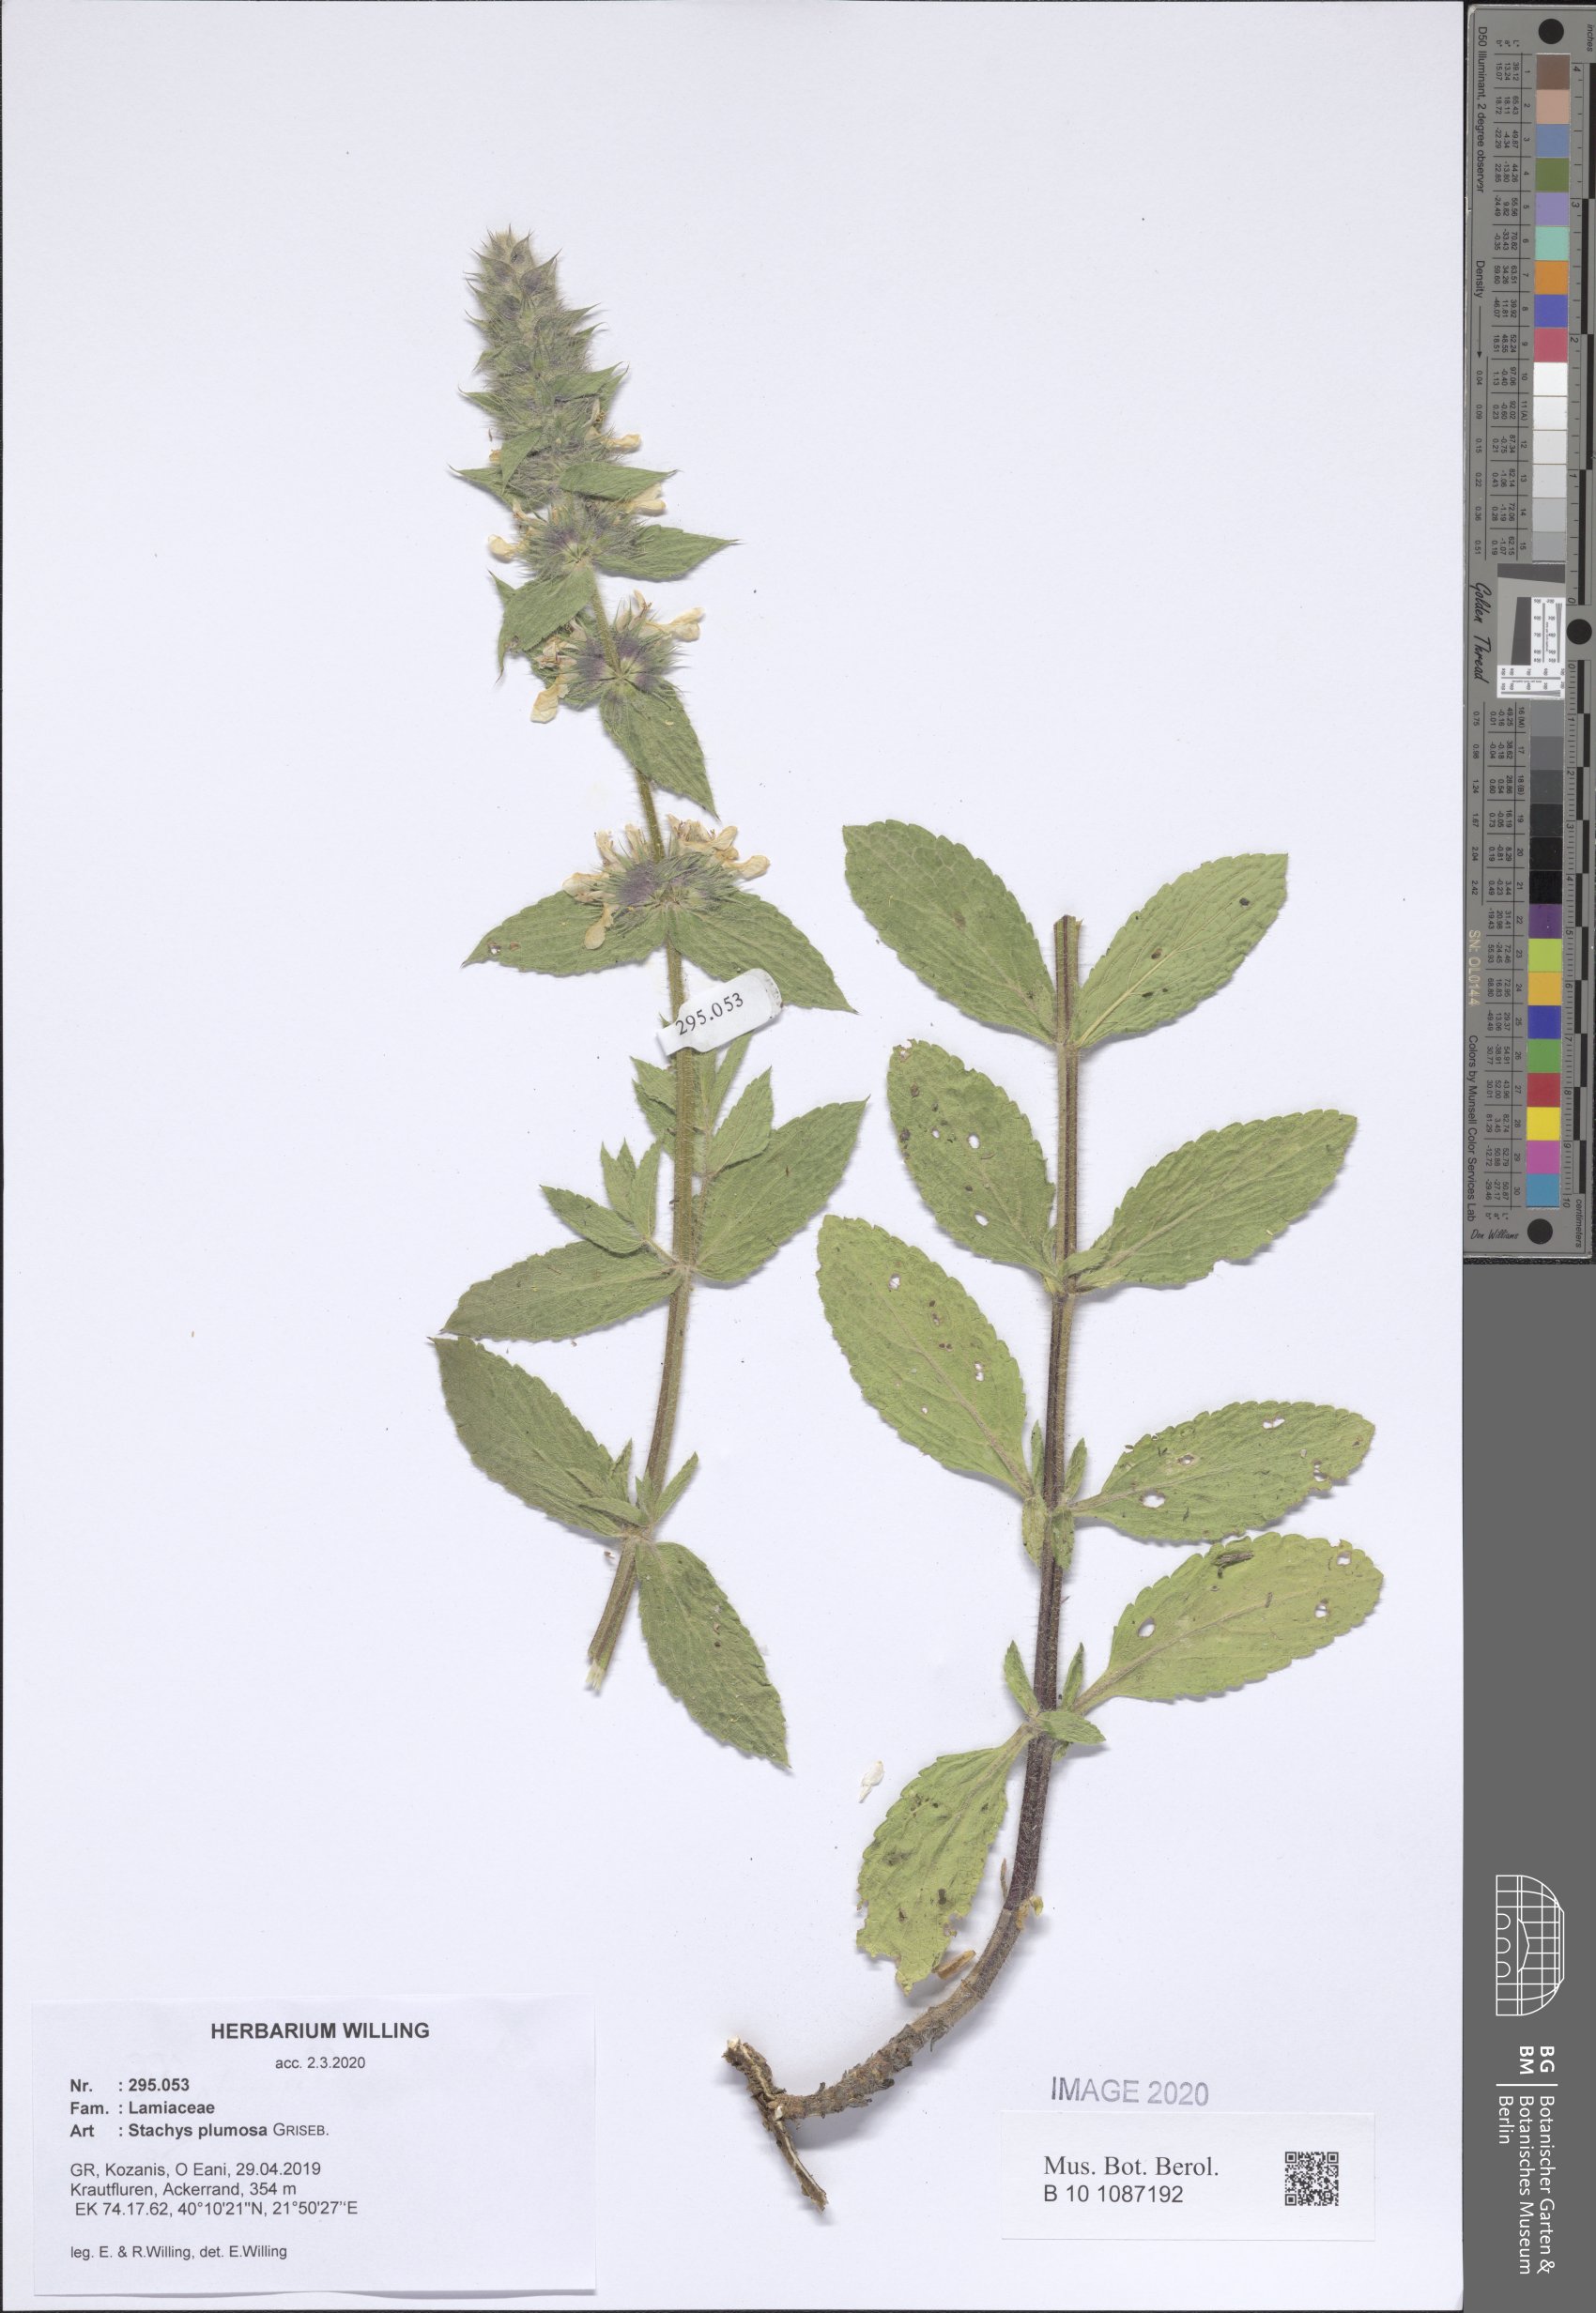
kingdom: Plantae
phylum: Tracheophyta
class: Magnoliopsida
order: Lamiales
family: Lamiaceae
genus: Stachys
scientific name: Stachys plumosa
